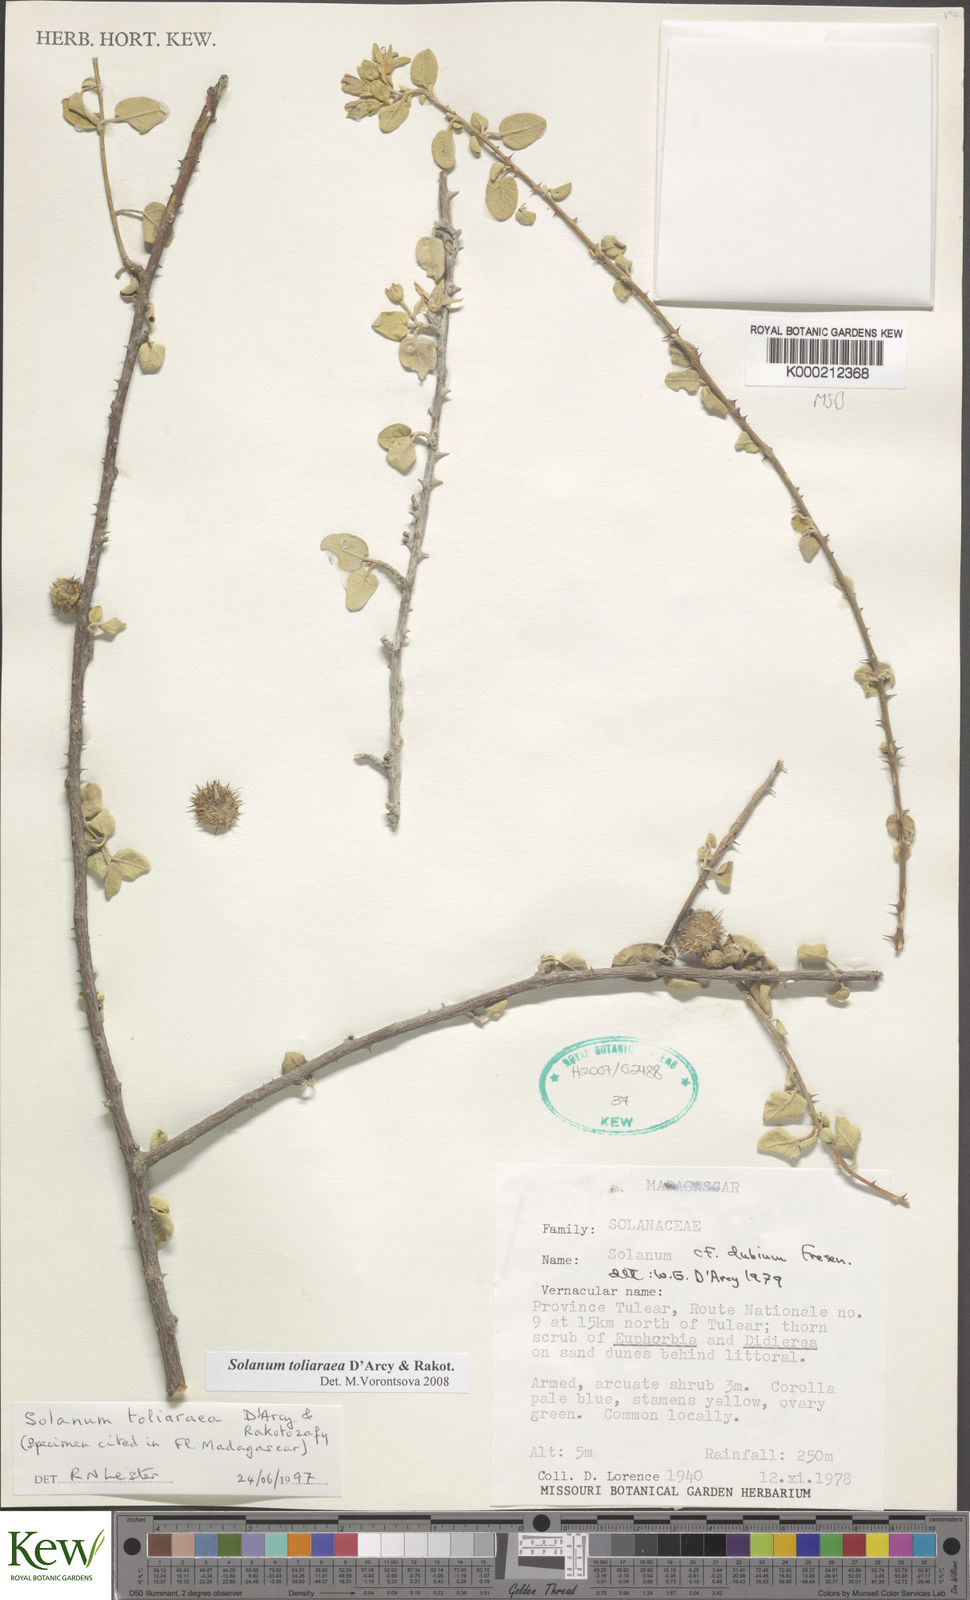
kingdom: Plantae
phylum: Tracheophyta
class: Magnoliopsida
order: Solanales
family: Solanaceae
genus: Solanum
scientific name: Solanum toliaraea
